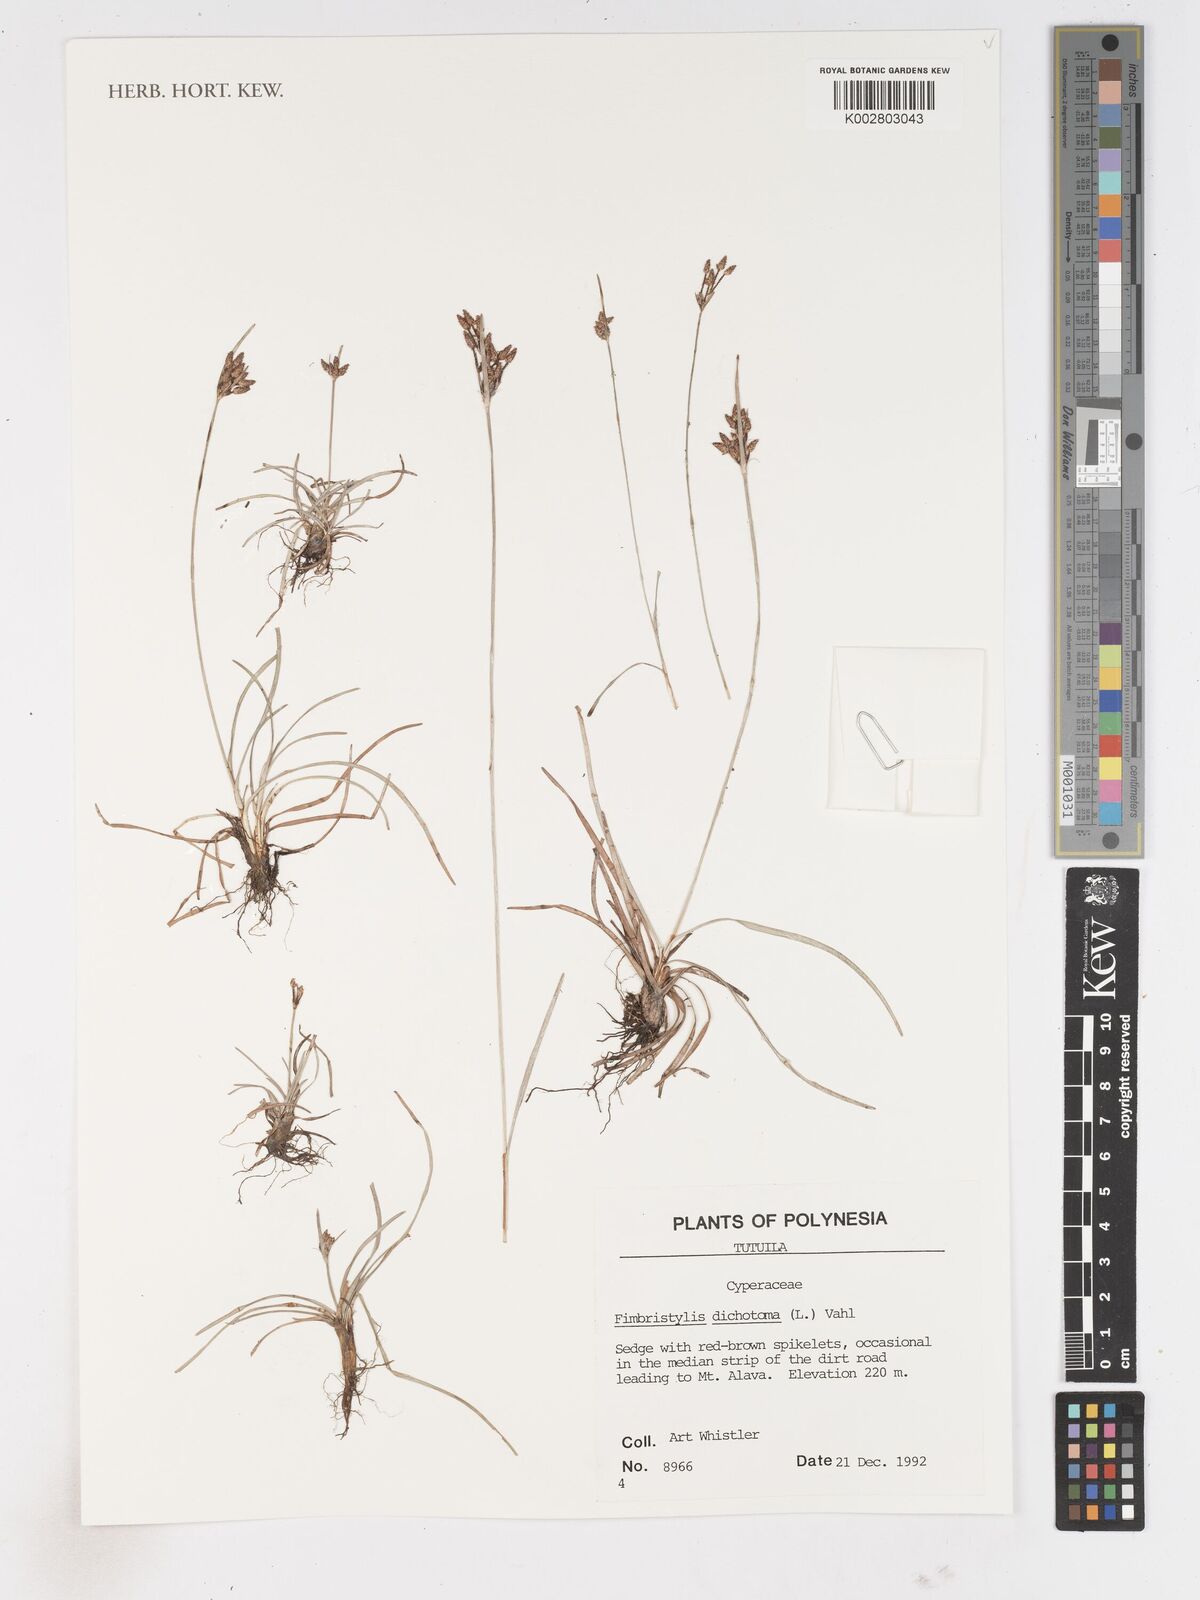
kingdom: Plantae
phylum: Tracheophyta
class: Liliopsida
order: Poales
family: Cyperaceae
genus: Fimbristylis
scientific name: Fimbristylis dichotoma
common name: Forked fimbry
